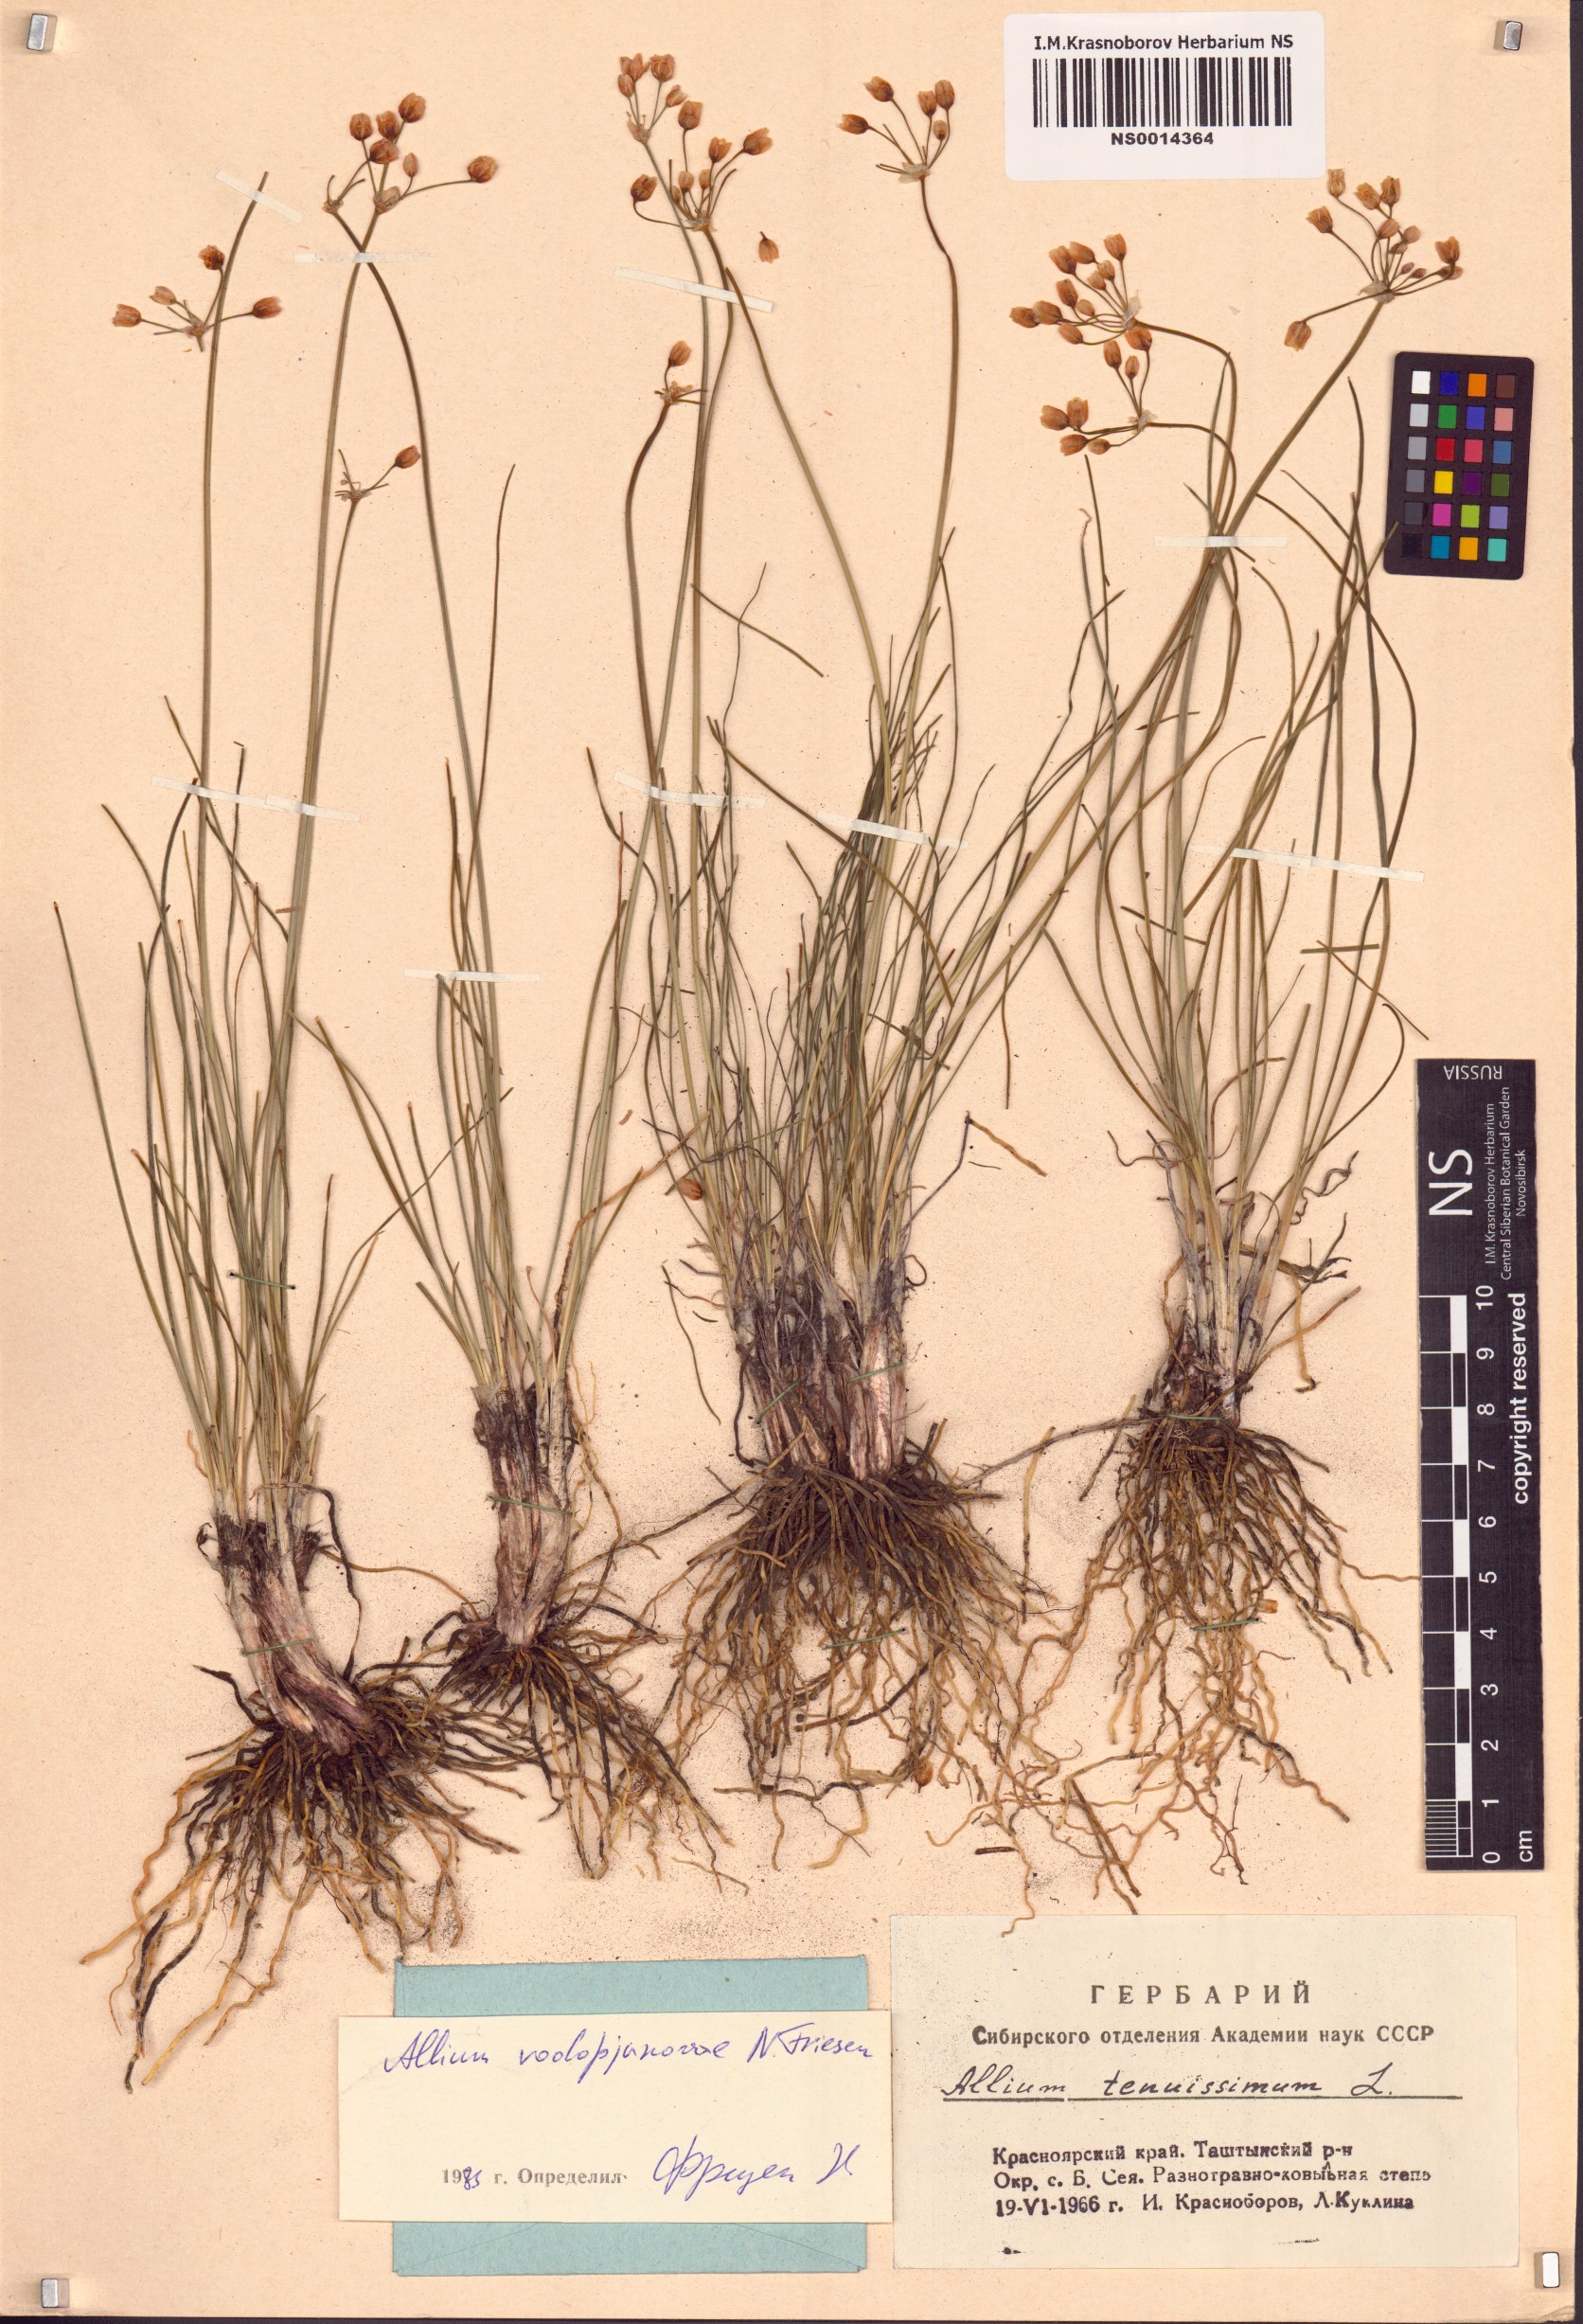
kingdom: Plantae
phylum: Tracheophyta
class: Liliopsida
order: Asparagales
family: Amaryllidaceae
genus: Allium
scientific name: Allium vodopjanovae
